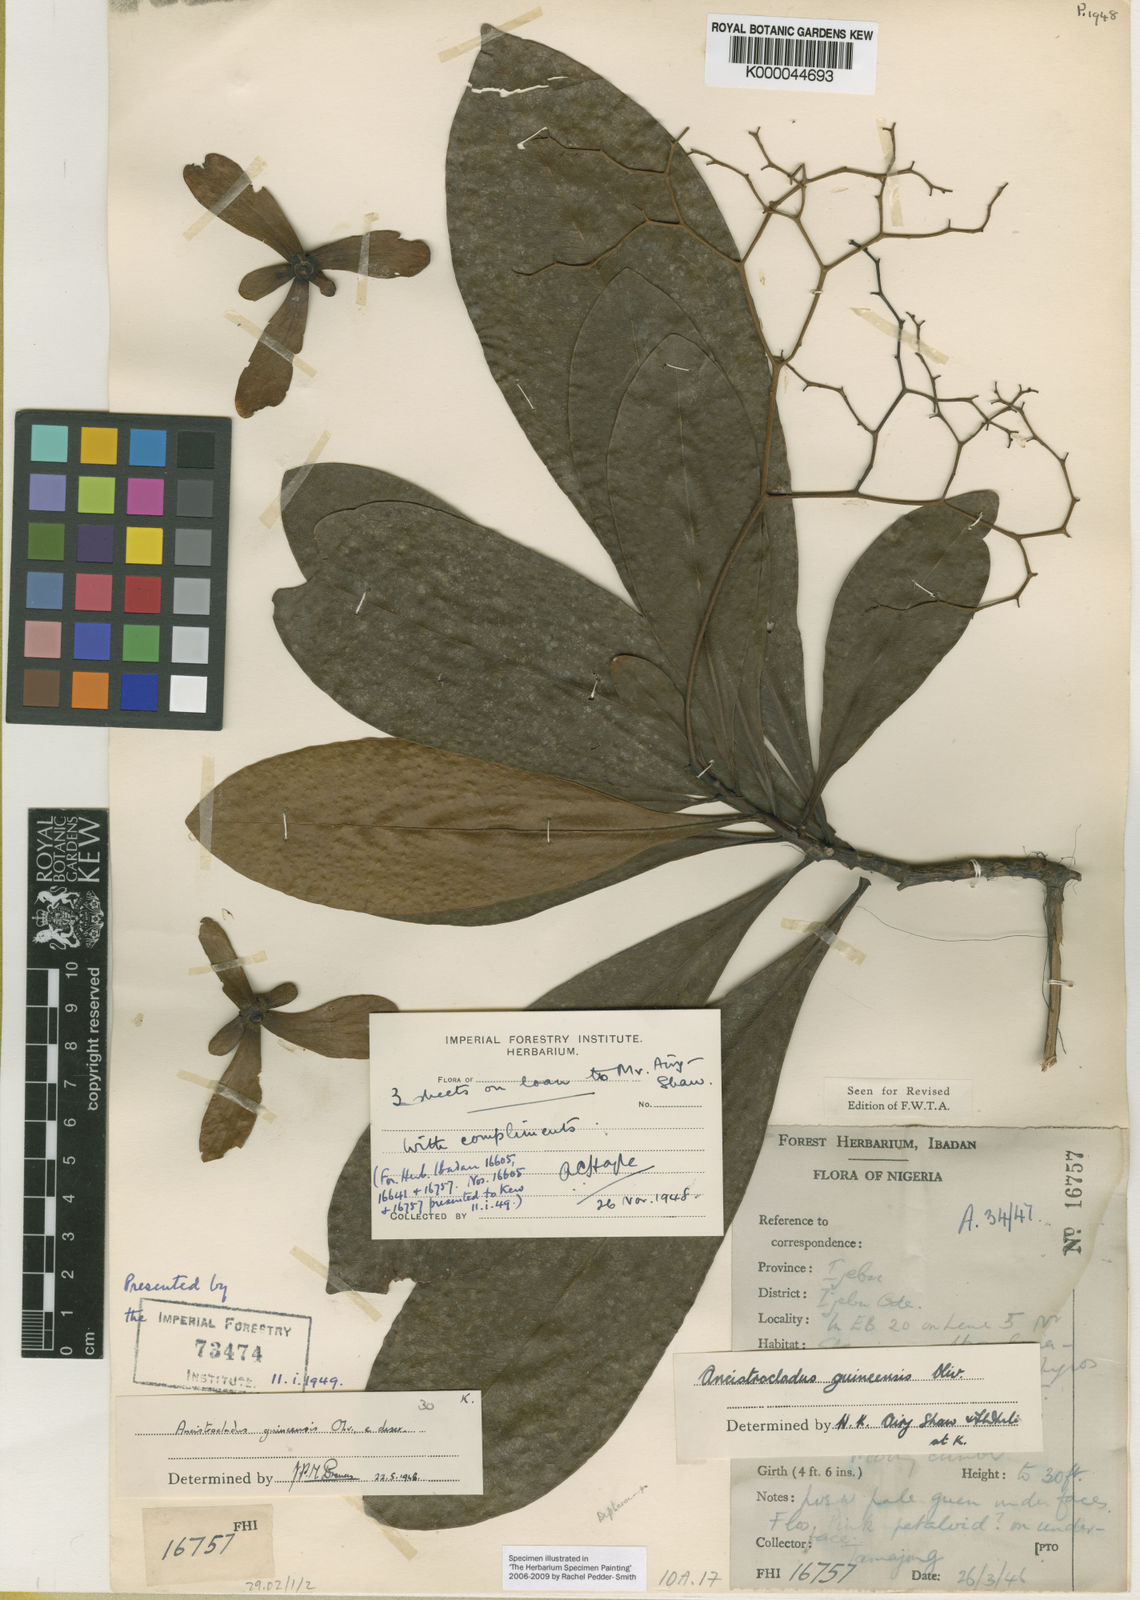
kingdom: Plantae
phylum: Tracheophyta
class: Magnoliopsida
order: Caryophyllales
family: Ancistrocladaceae
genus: Ancistrocladus
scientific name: Ancistrocladus guineensis
